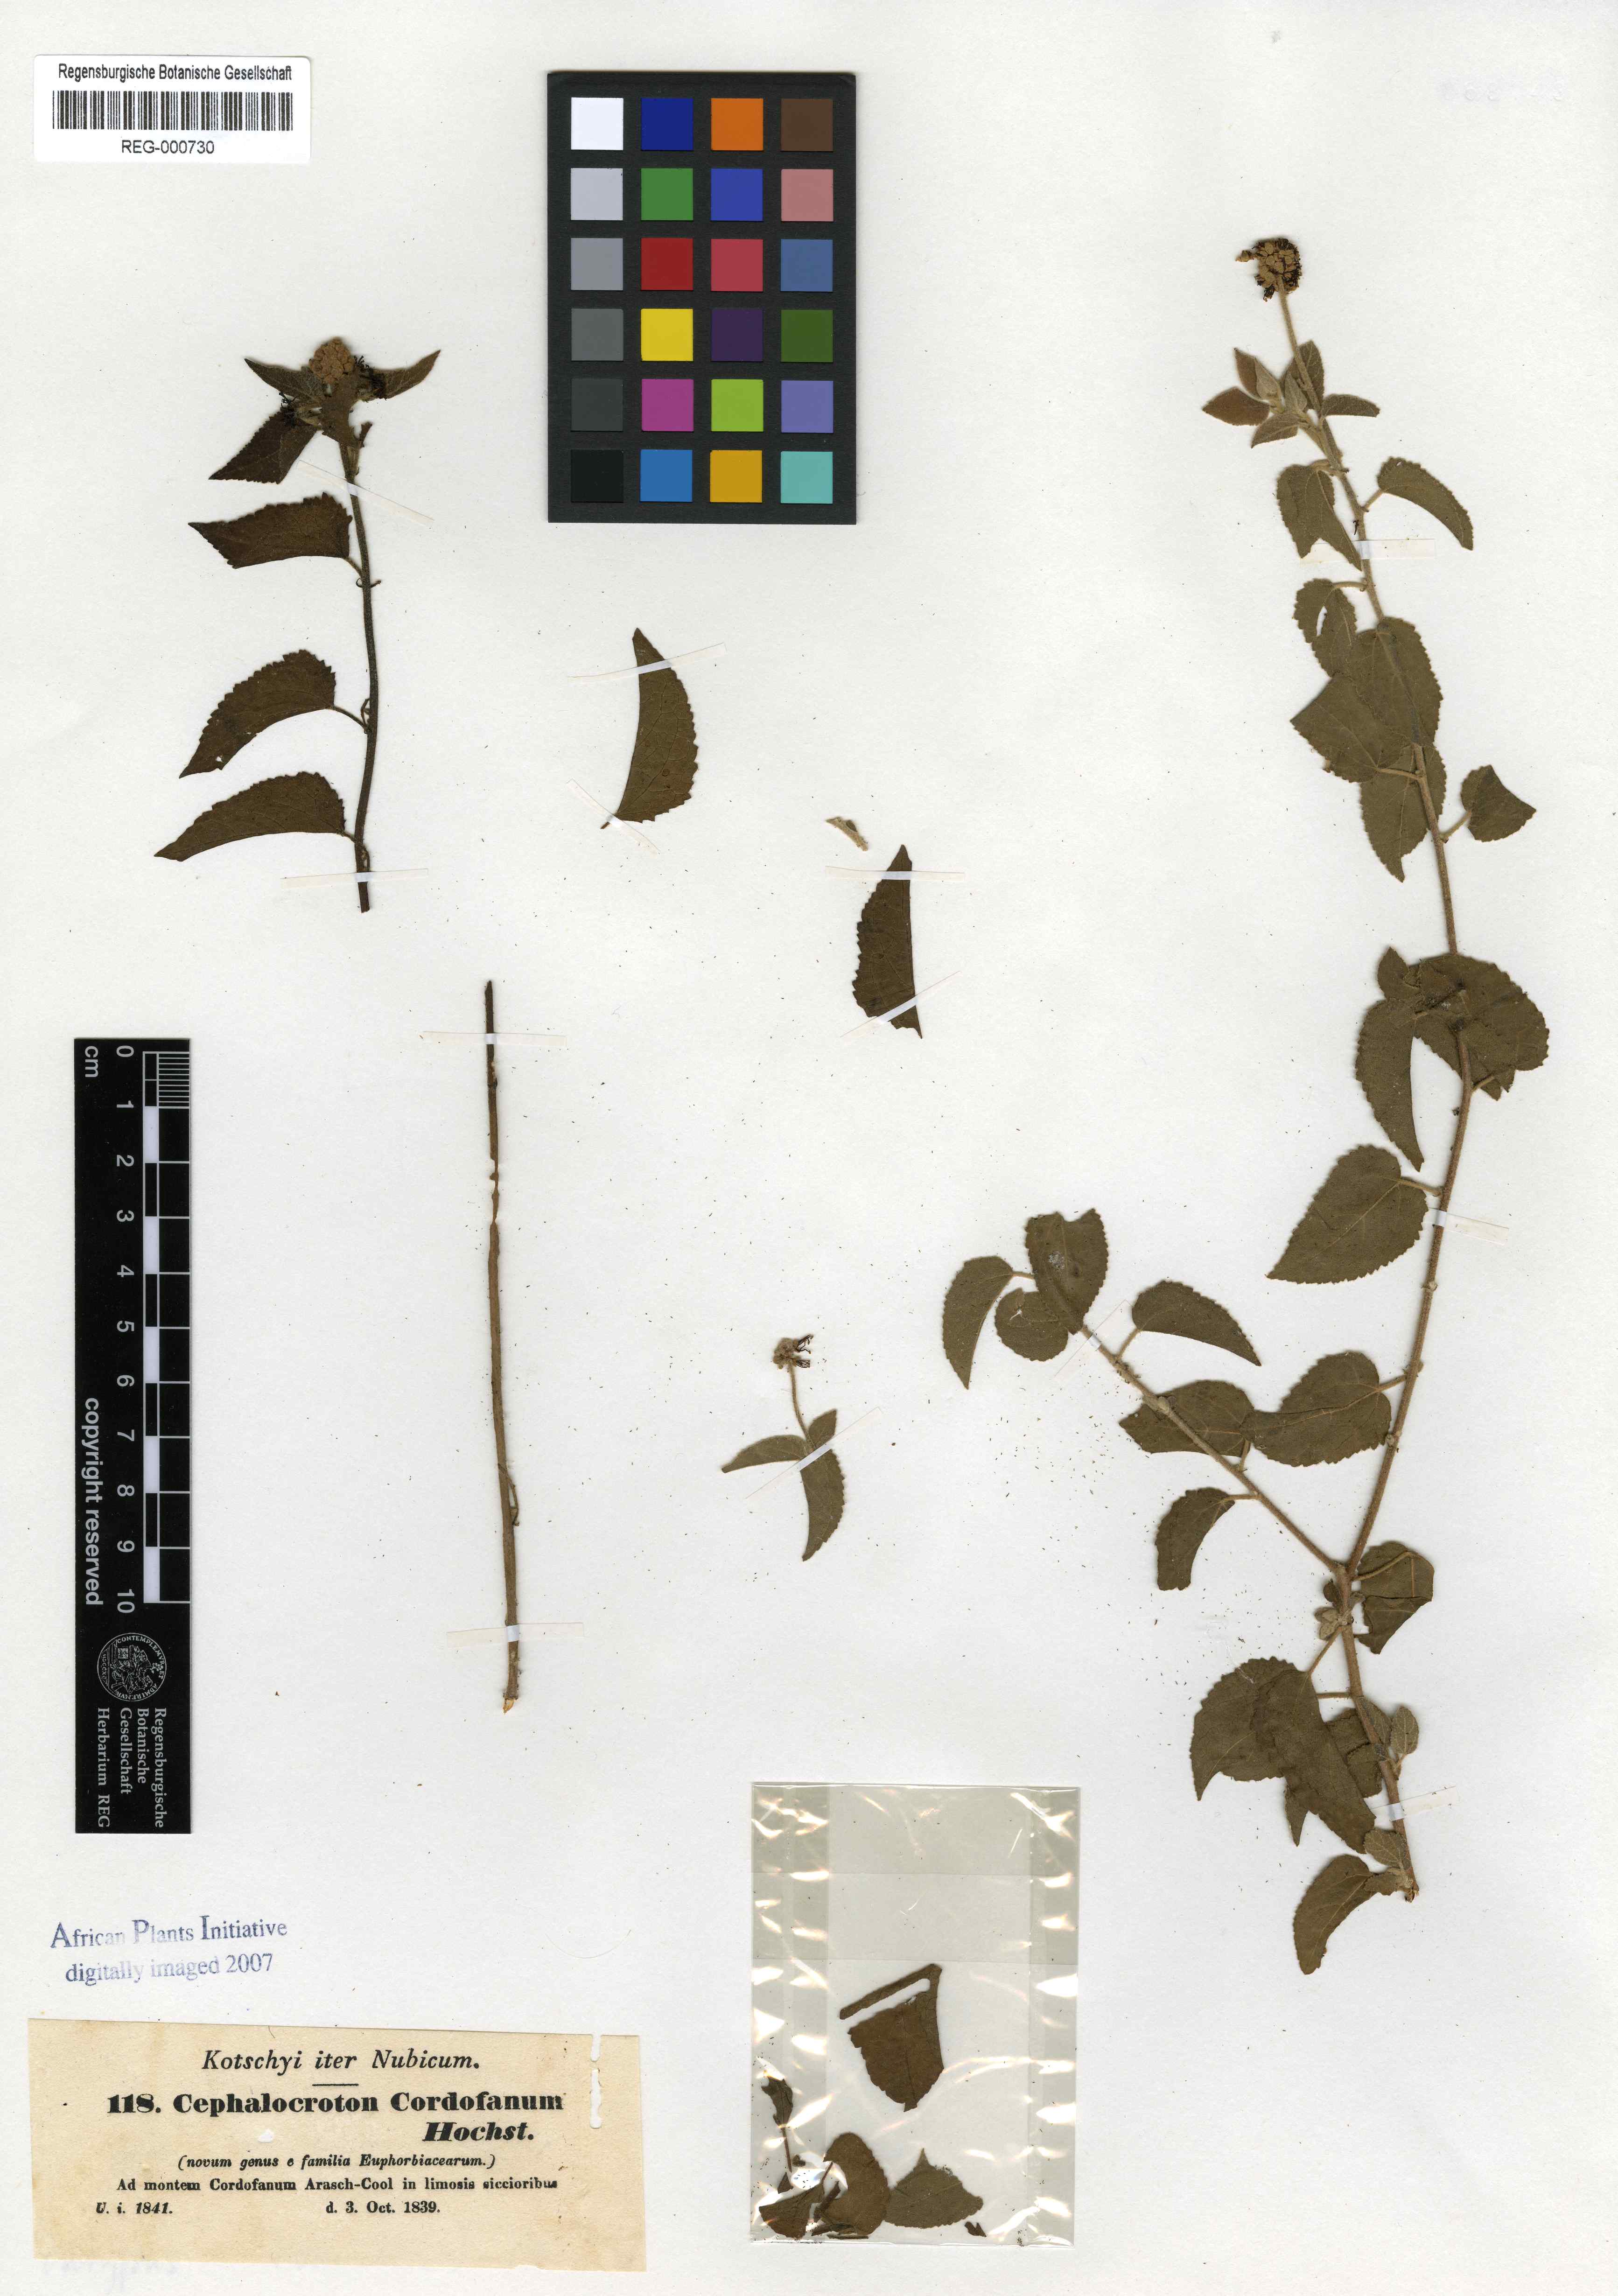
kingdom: Plantae
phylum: Tracheophyta
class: Magnoliopsida
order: Malpighiales
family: Euphorbiaceae
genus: Cephalocroton
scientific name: Cephalocroton cordofanus
